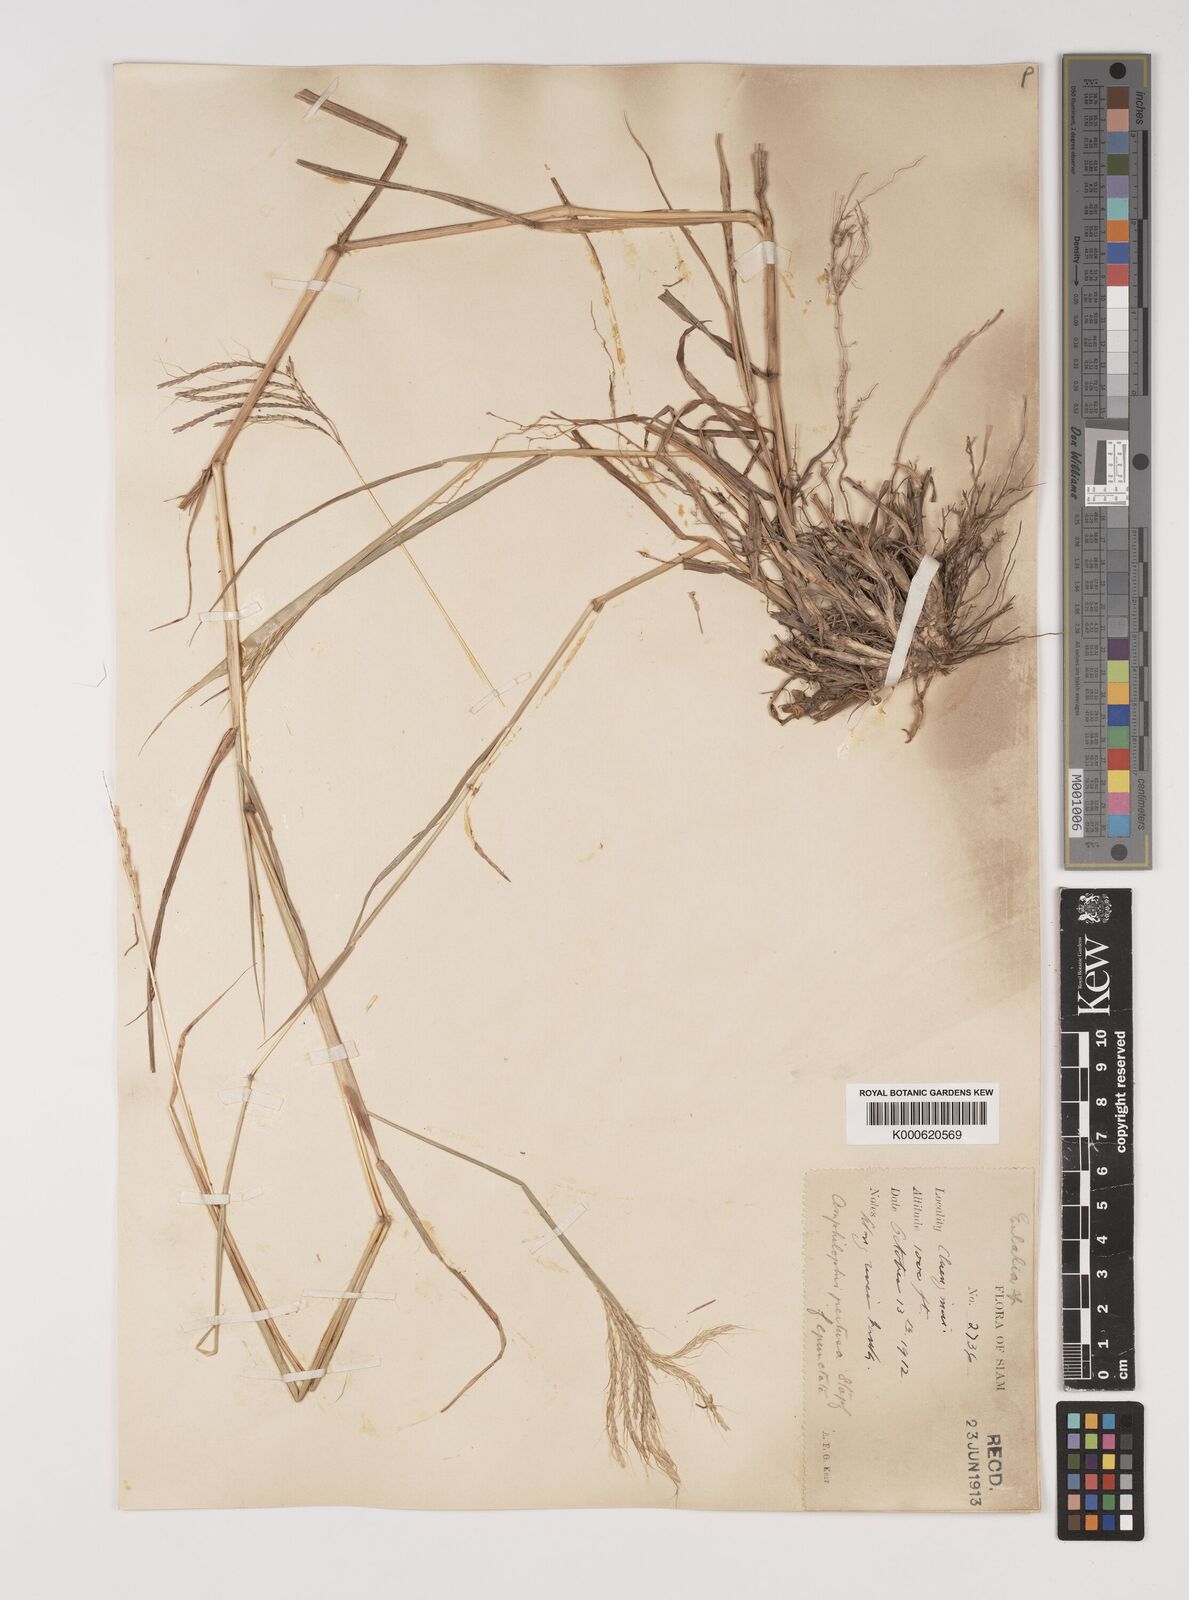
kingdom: Plantae
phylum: Tracheophyta
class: Liliopsida
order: Poales
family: Poaceae
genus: Bothriochloa
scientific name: Bothriochloa pertusa
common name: Pitted beardgrass
